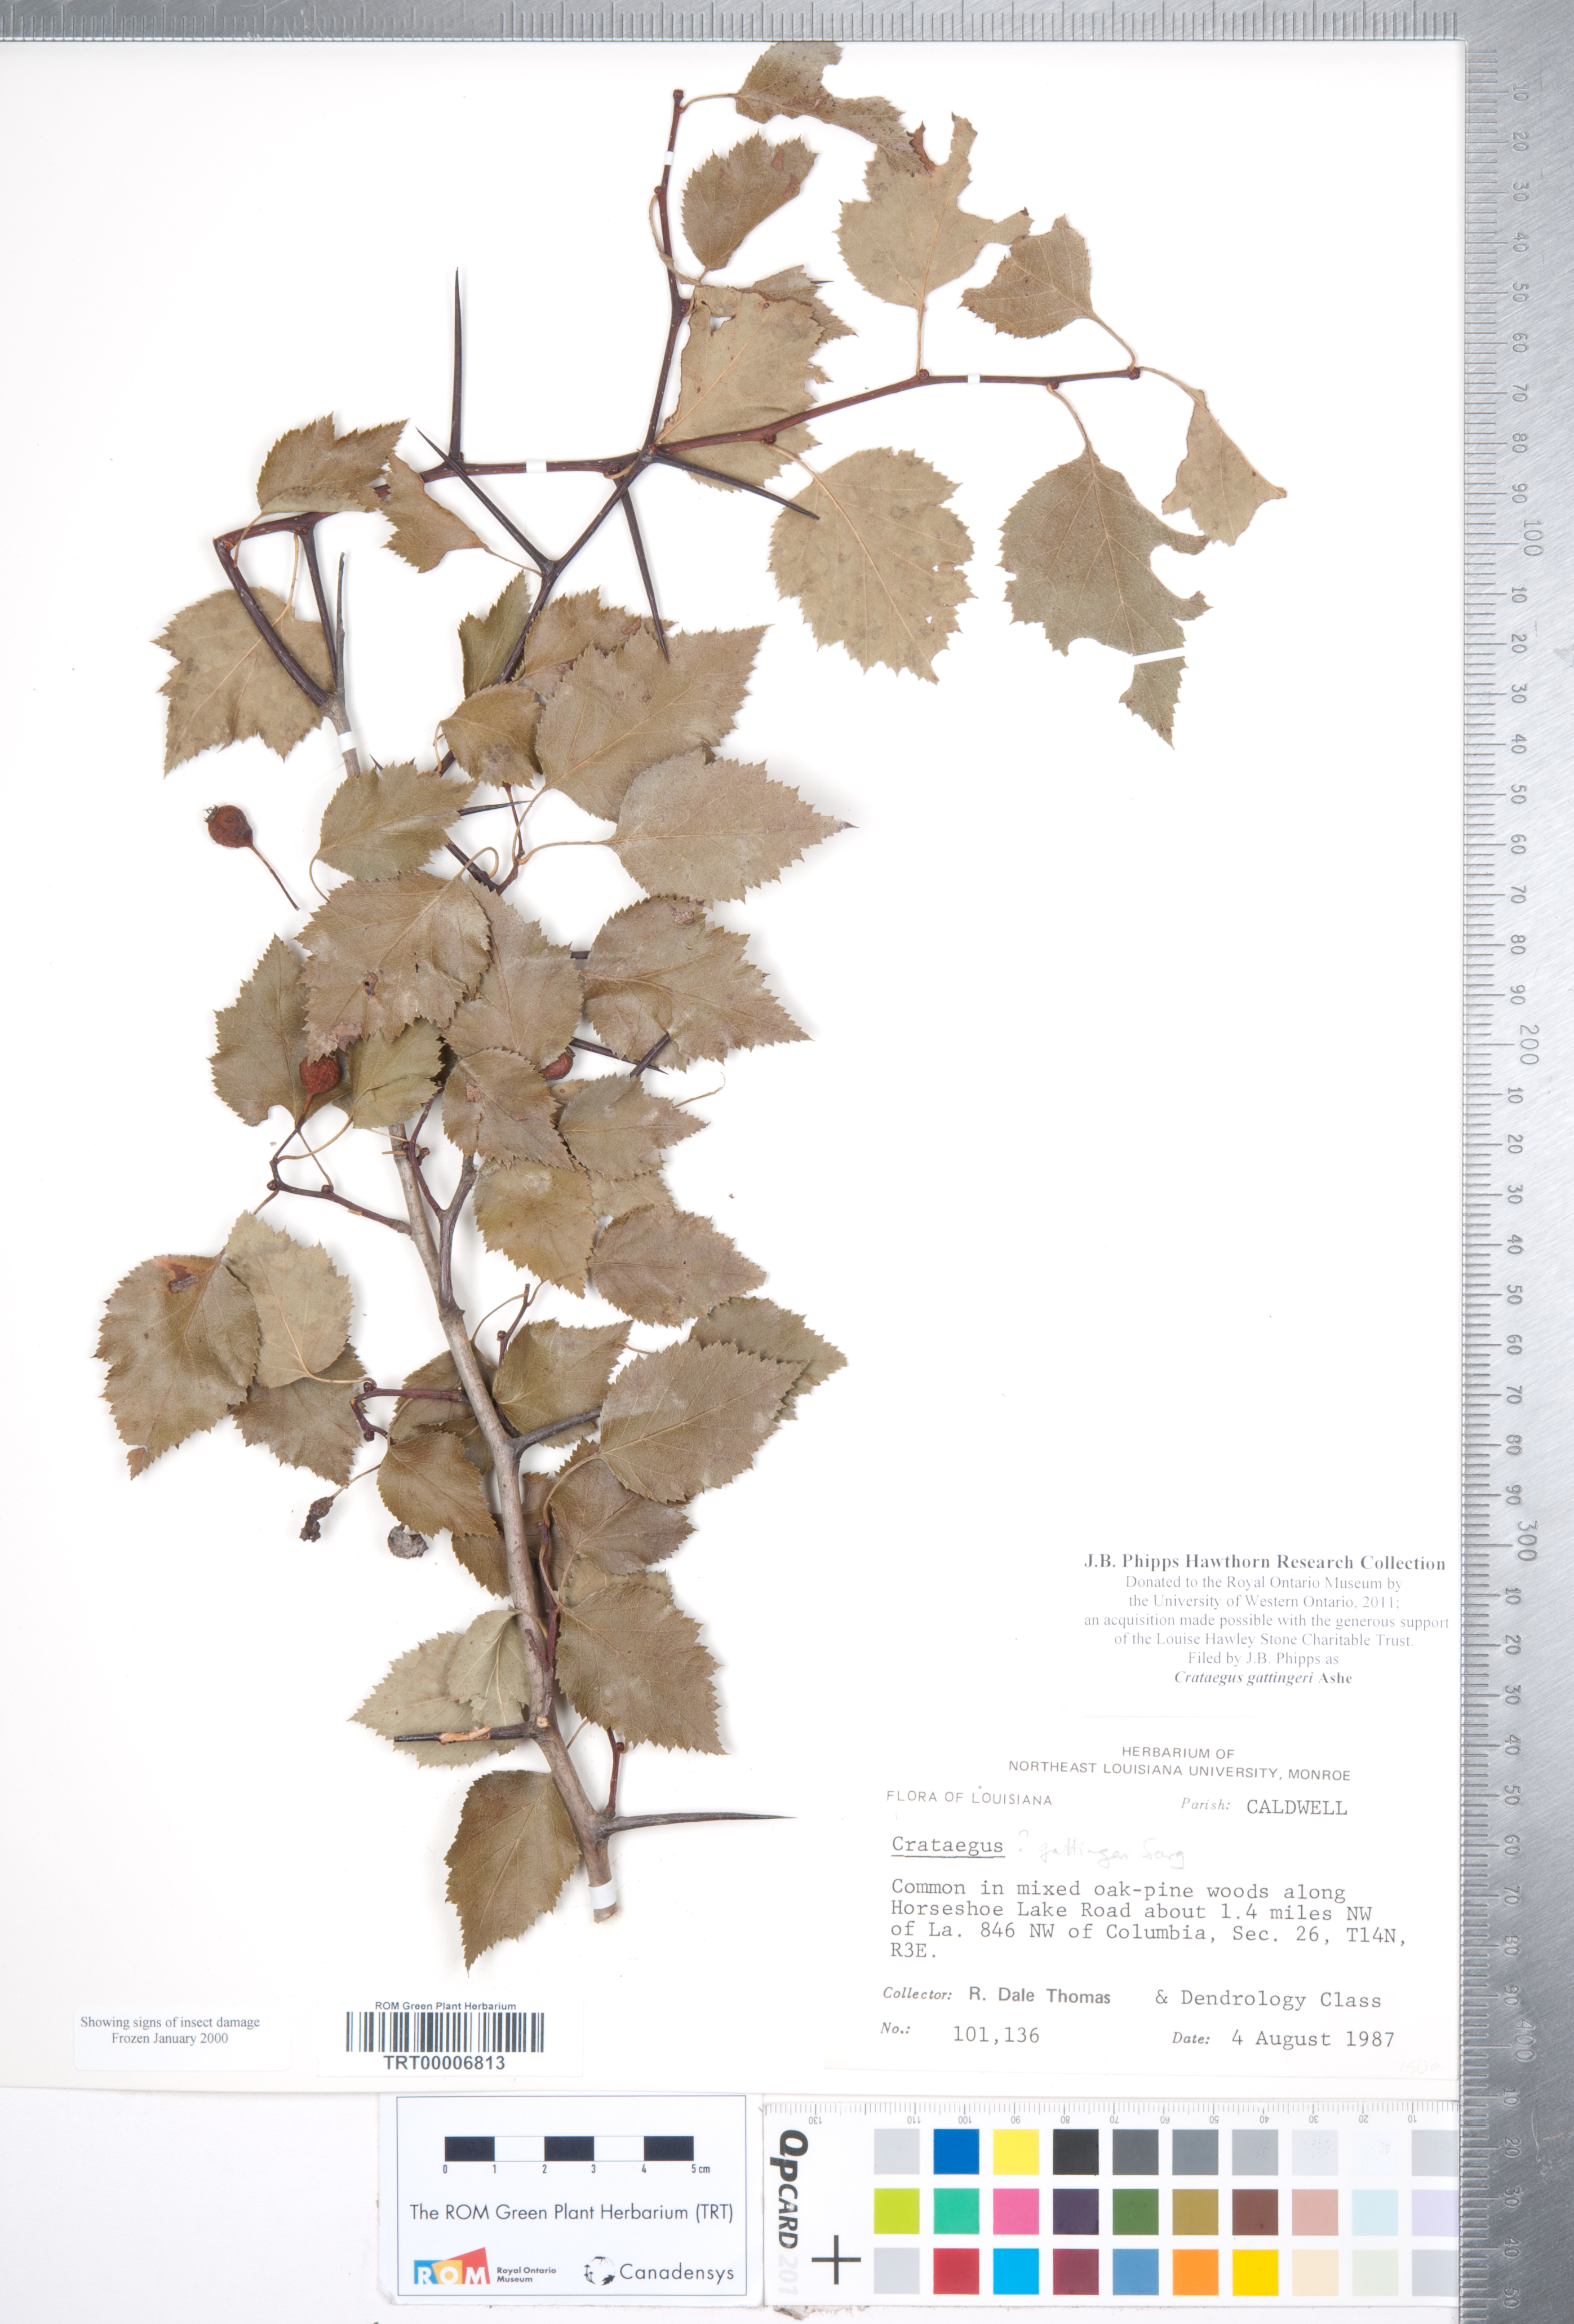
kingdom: Plantae
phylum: Tracheophyta
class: Magnoliopsida
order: Rosales
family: Rosaceae
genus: Crataegus
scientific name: Crataegus gattingeri
